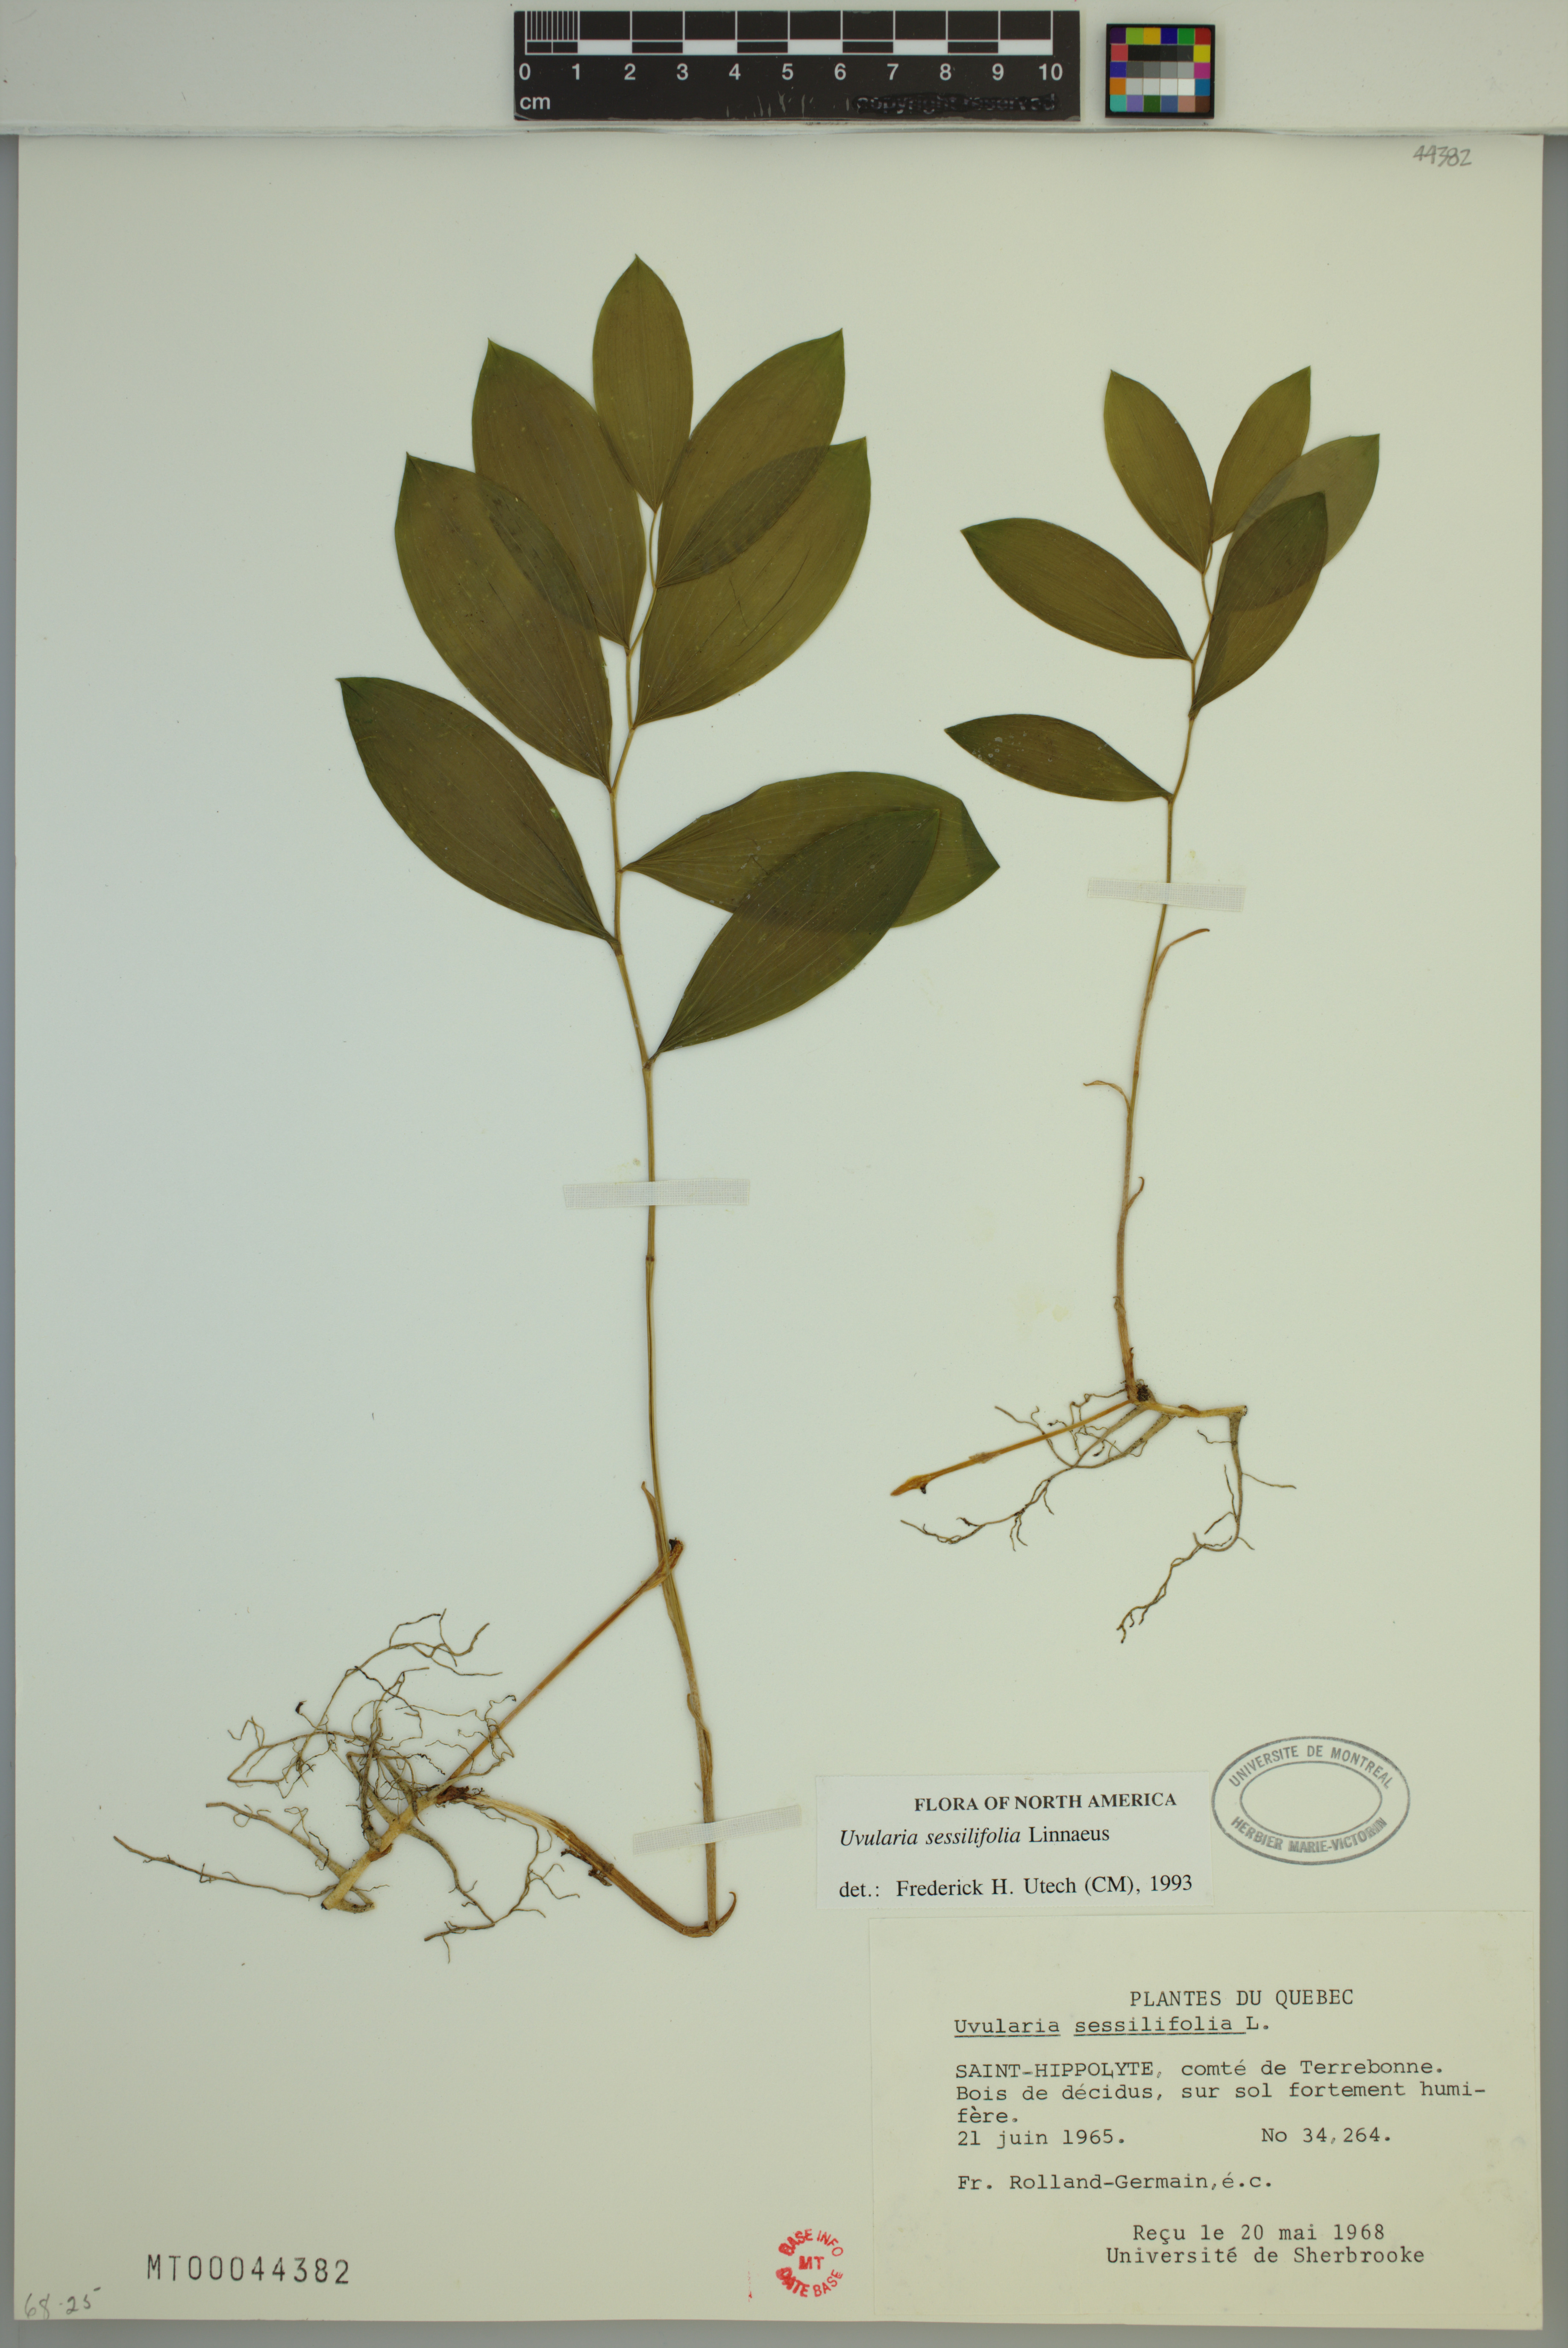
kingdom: Plantae
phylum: Tracheophyta
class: Liliopsida
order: Liliales
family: Colchicaceae
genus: Uvularia
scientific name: Uvularia sessilifolia
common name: Straw-lily
